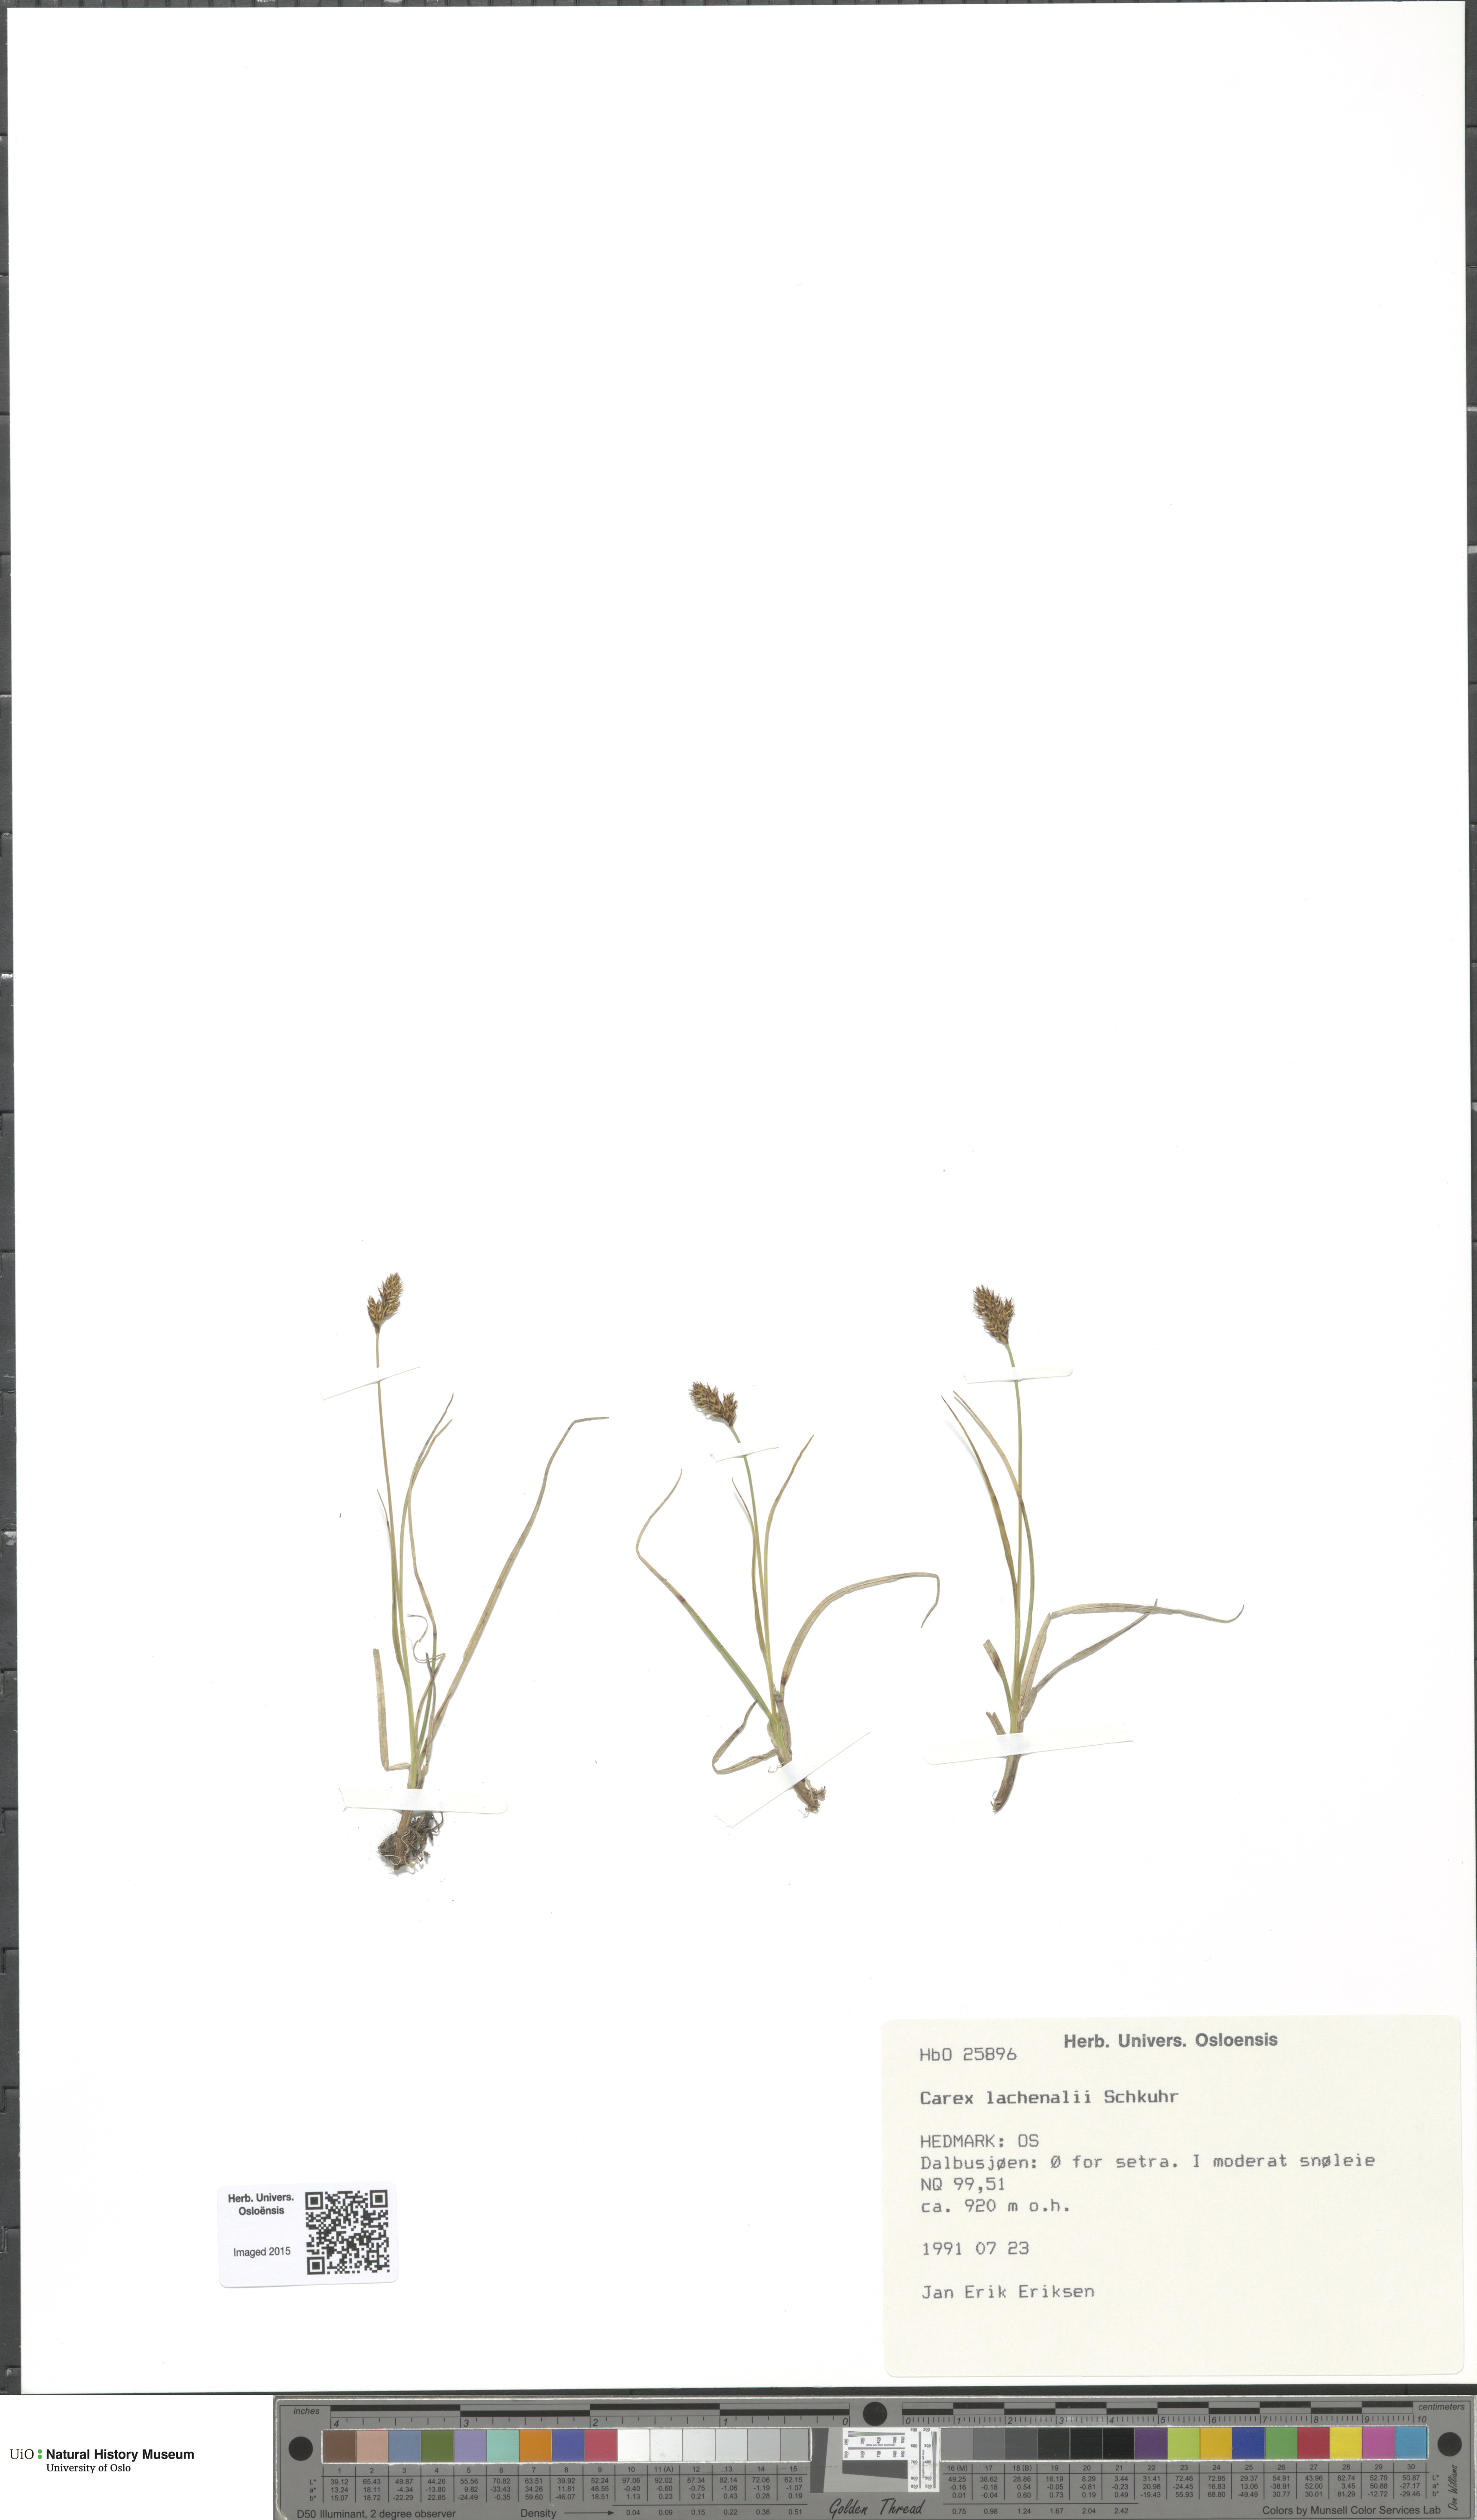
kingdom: Plantae
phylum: Tracheophyta
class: Liliopsida
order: Poales
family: Cyperaceae
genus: Carex
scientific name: Carex lachenalii
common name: Hare's-foot sedge
